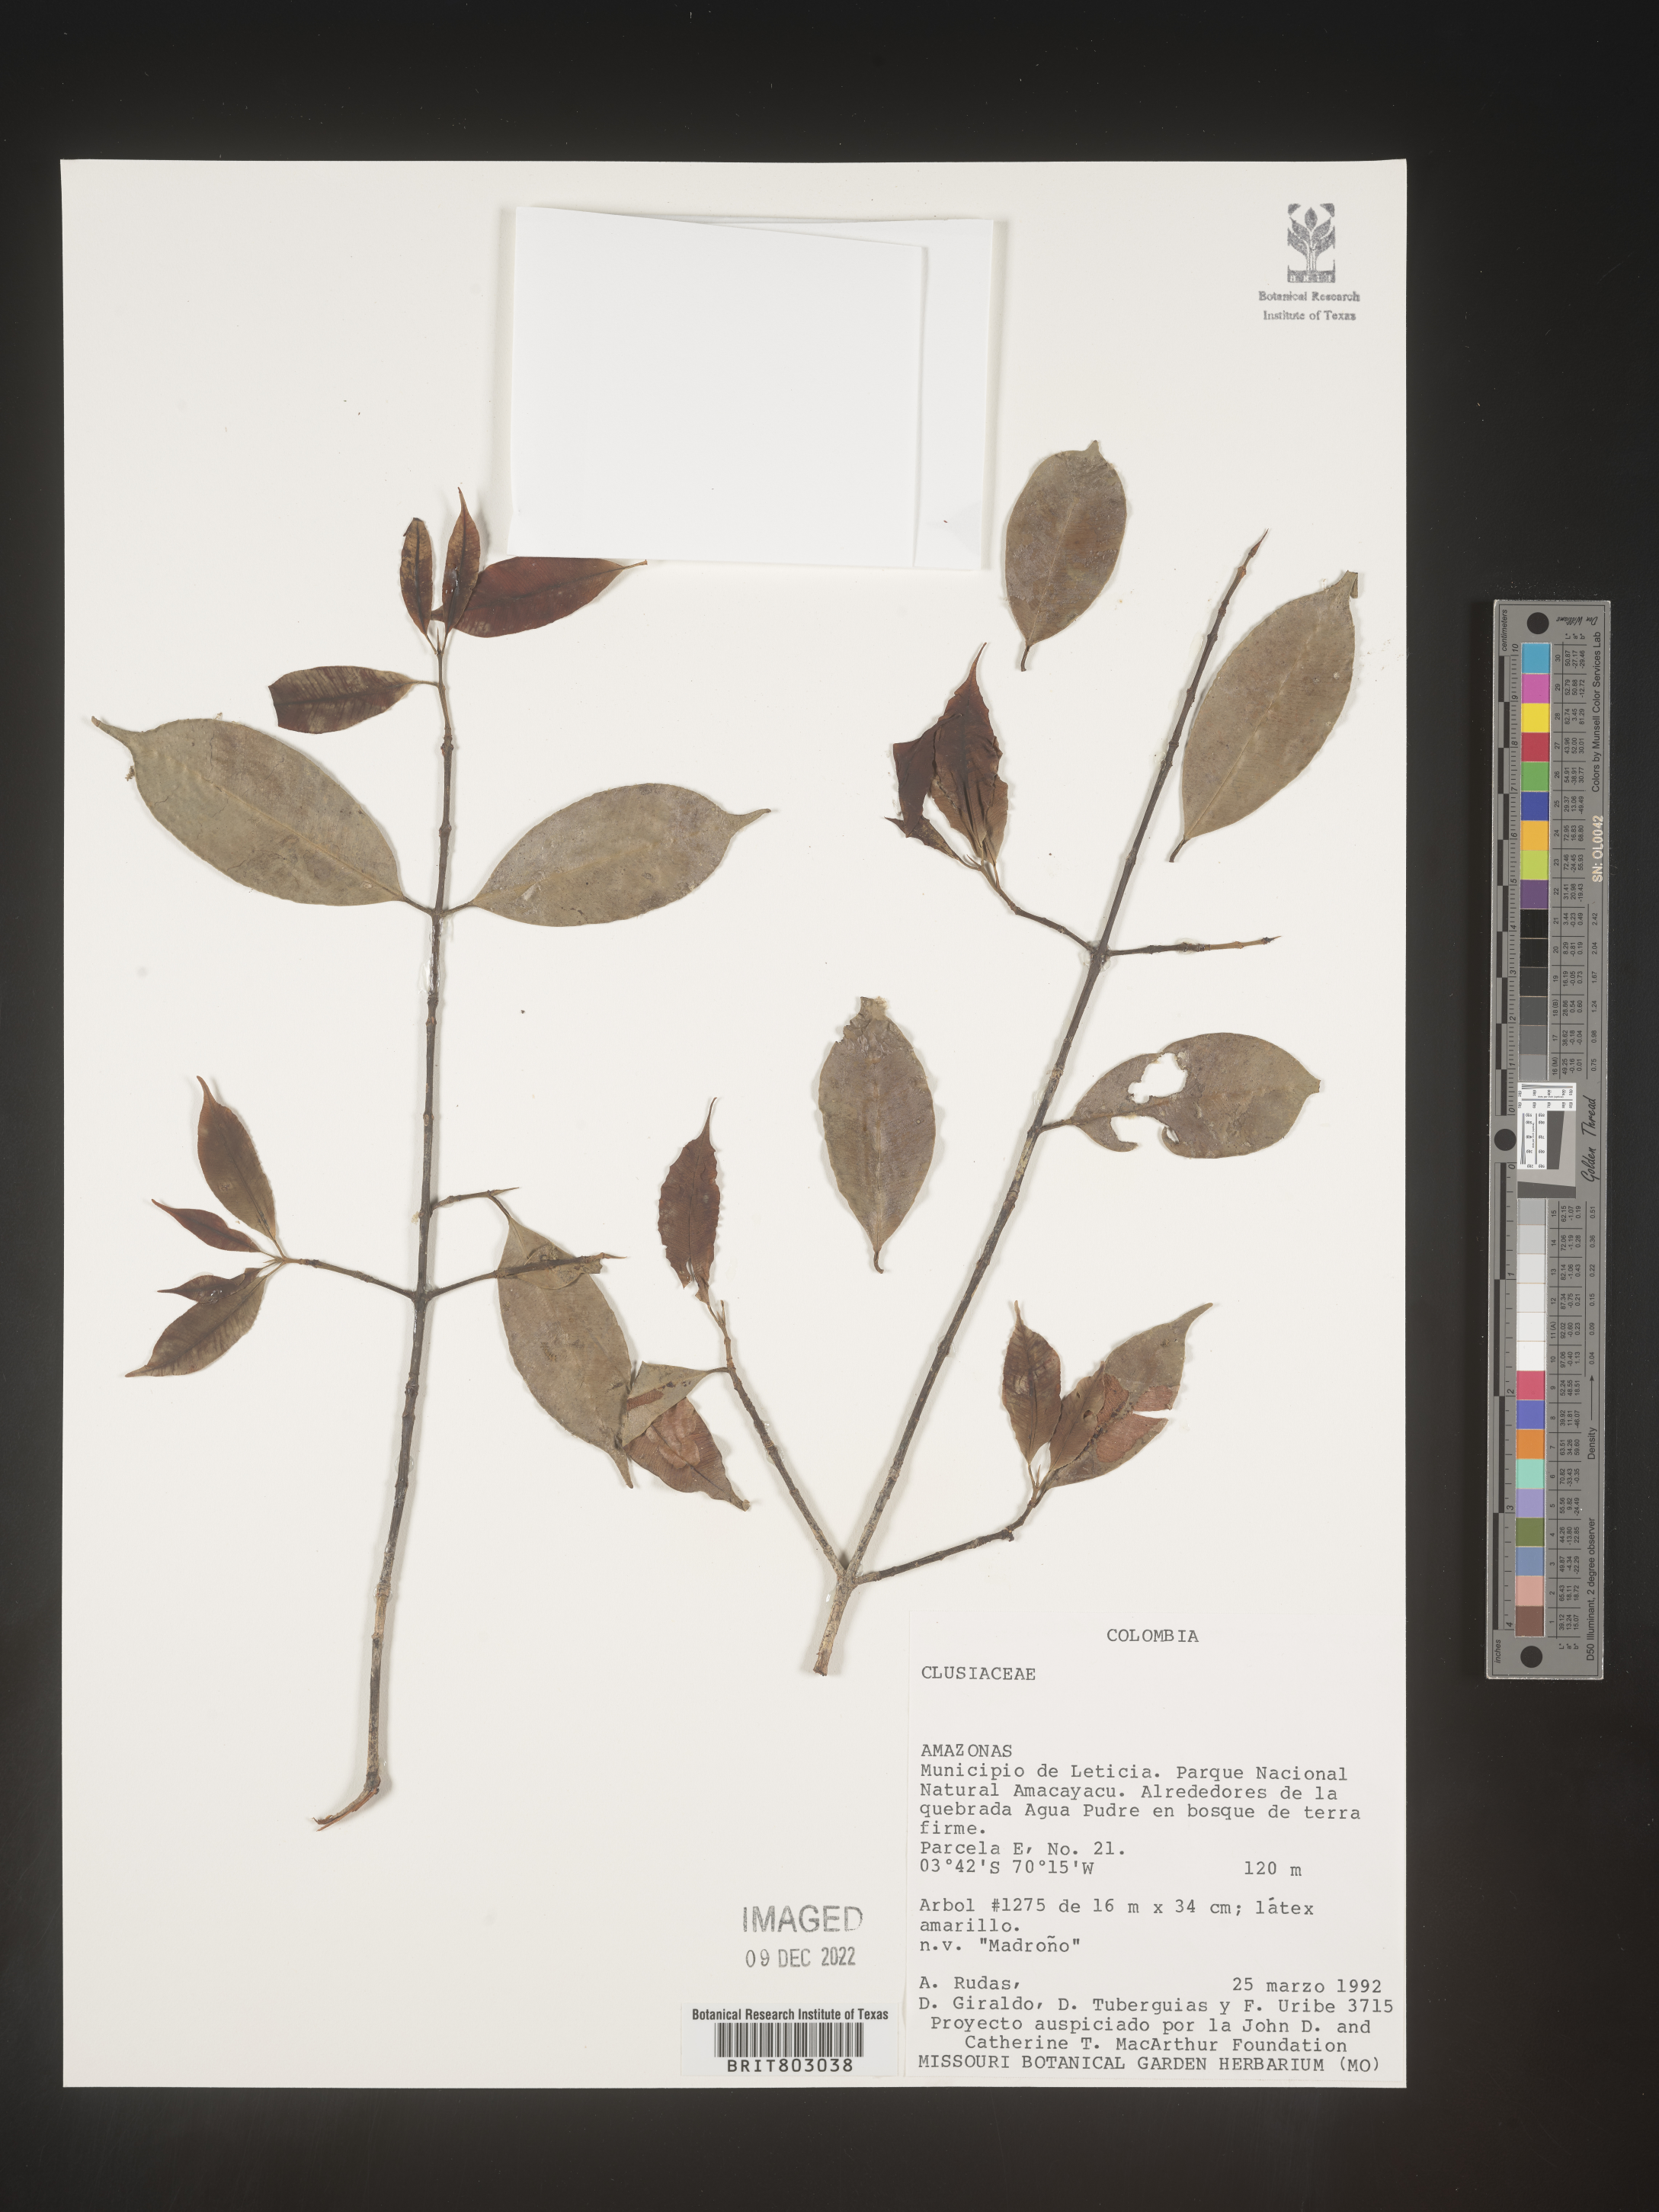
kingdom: Plantae
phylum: Tracheophyta
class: Magnoliopsida
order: Malpighiales
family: Clusiaceae
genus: Symphonia
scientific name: Symphonia
